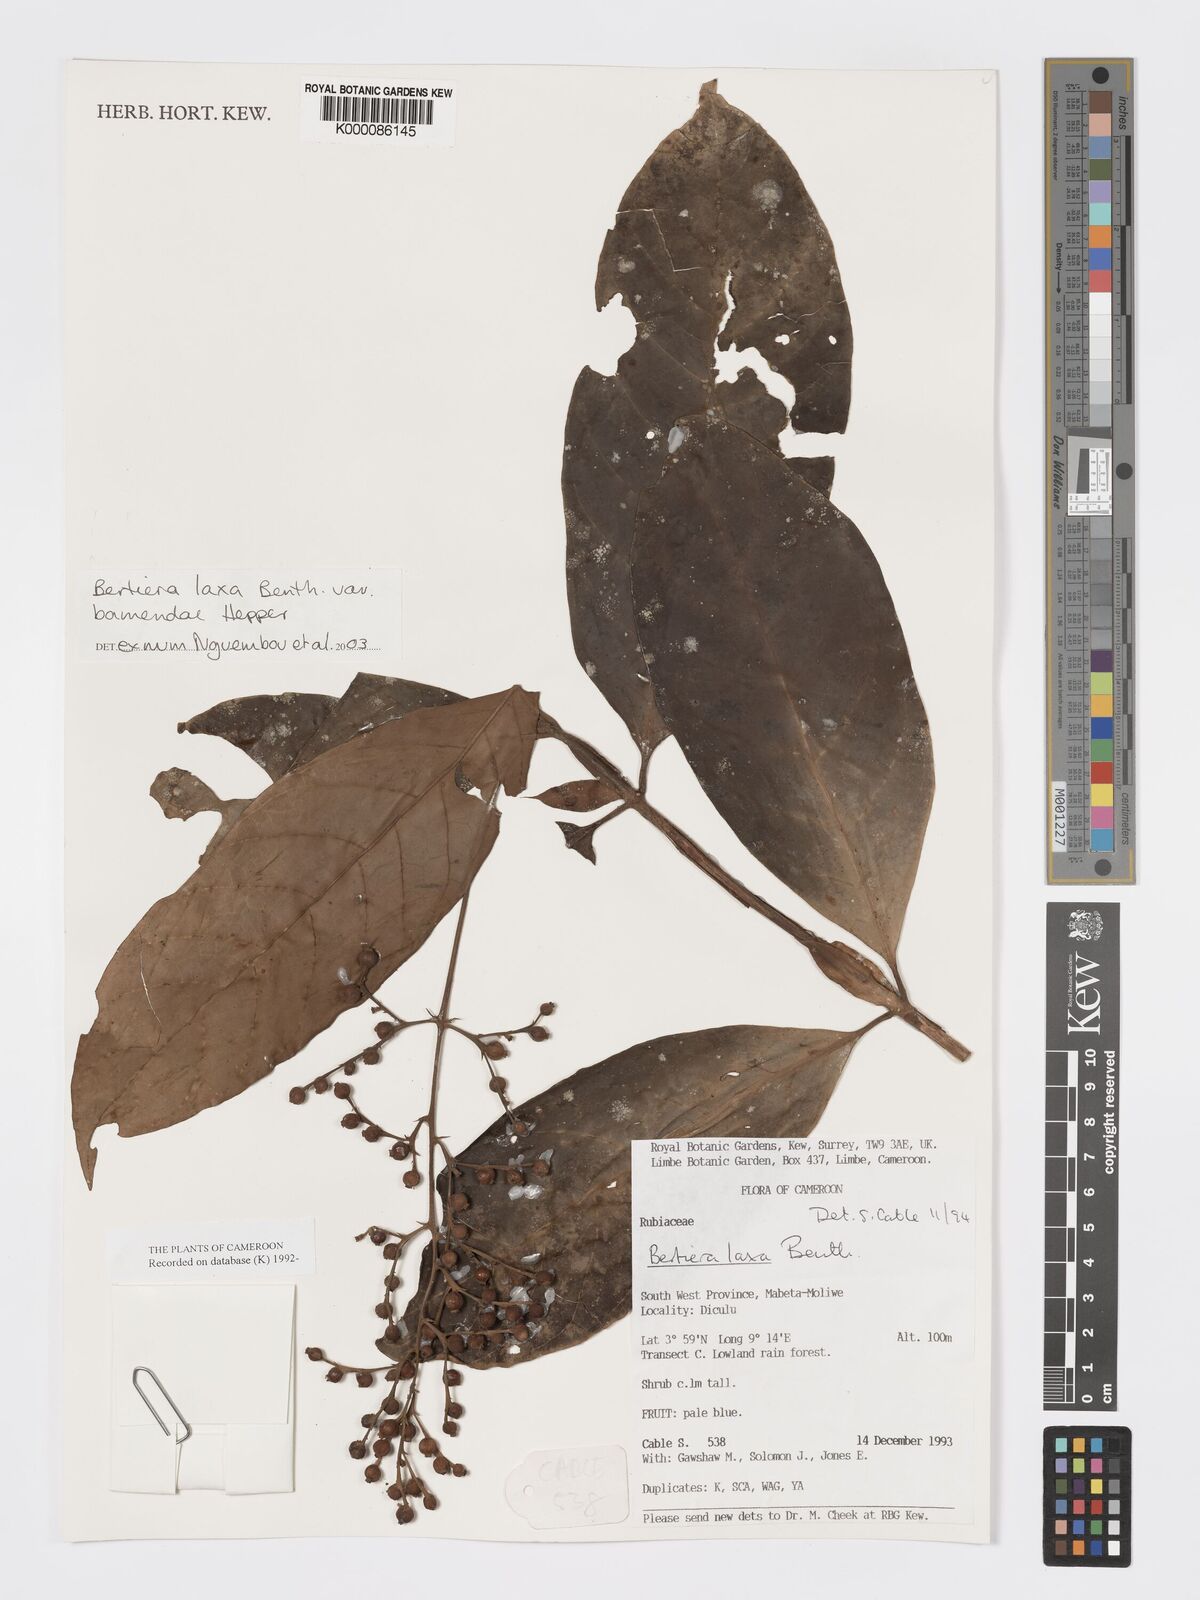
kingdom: Plantae
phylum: Tracheophyta
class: Magnoliopsida
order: Gentianales
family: Rubiaceae
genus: Bertiera
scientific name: Bertiera laxa
